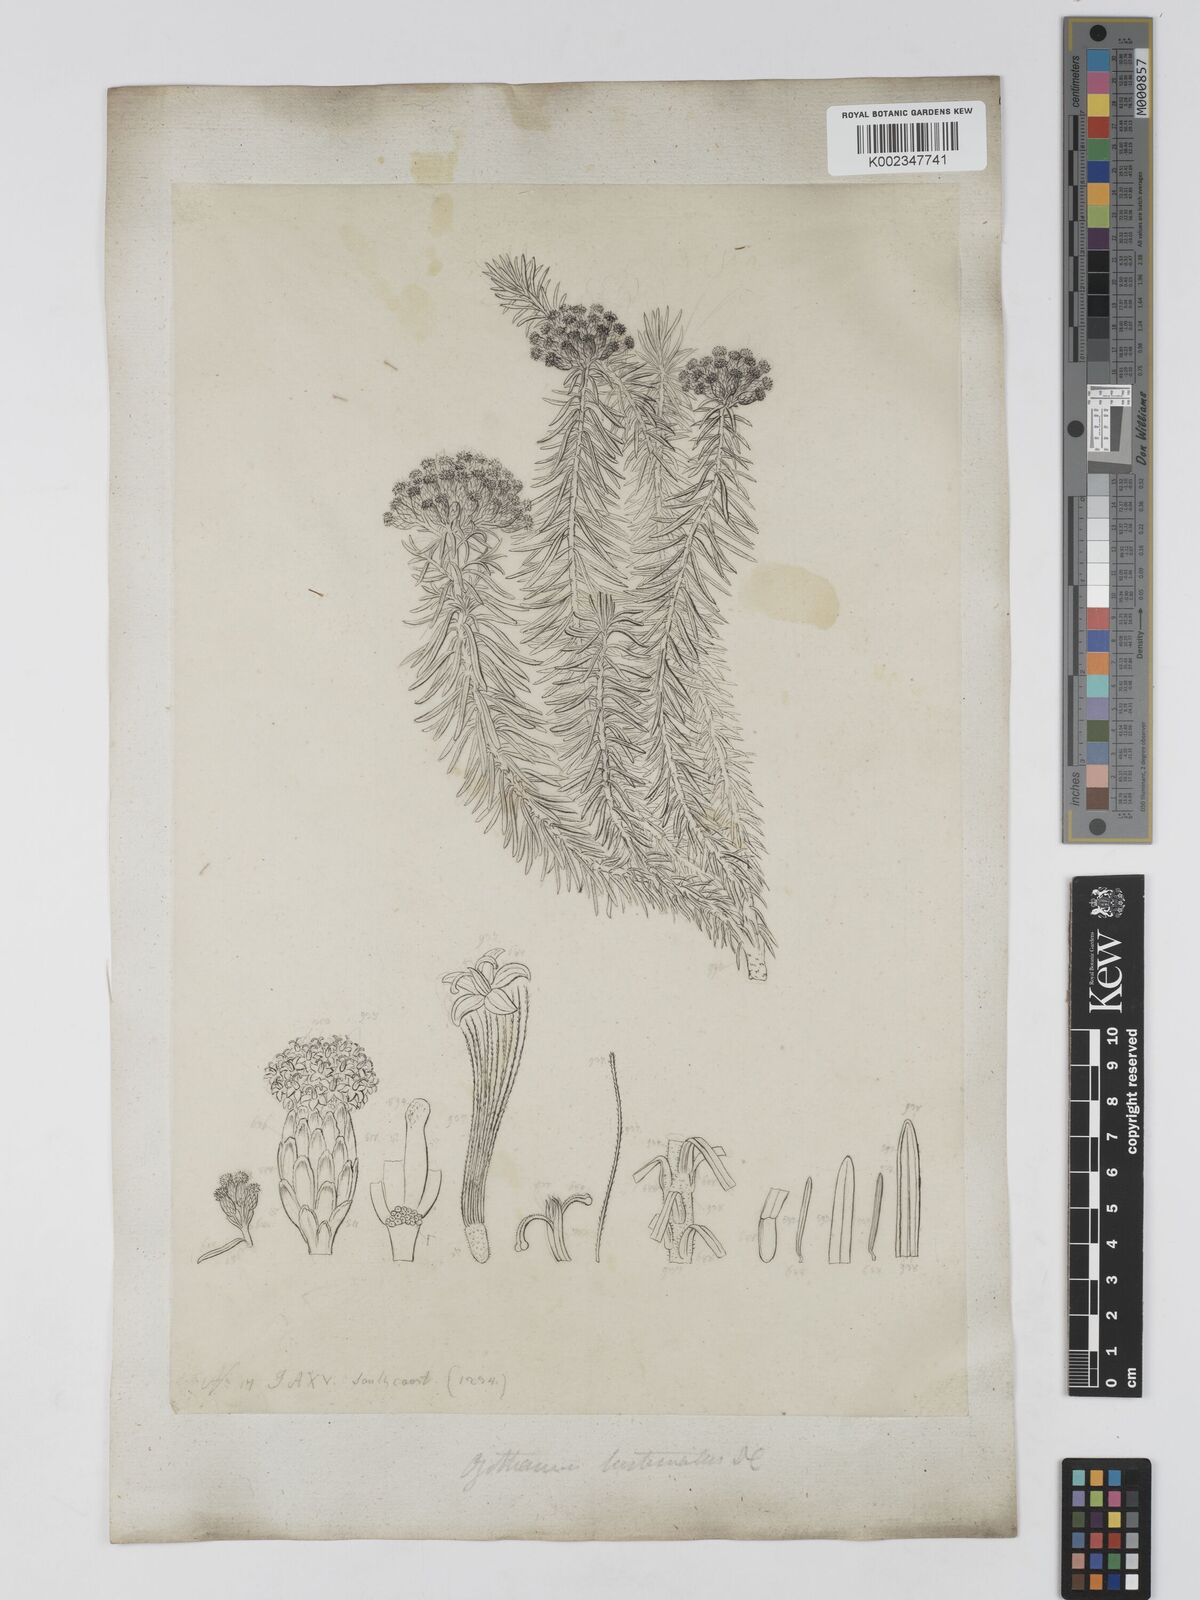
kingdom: Plantae
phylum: Tracheophyta
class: Magnoliopsida
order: Asterales
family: Asteraceae
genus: Ozothamnus
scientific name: Ozothamnus gunnii
